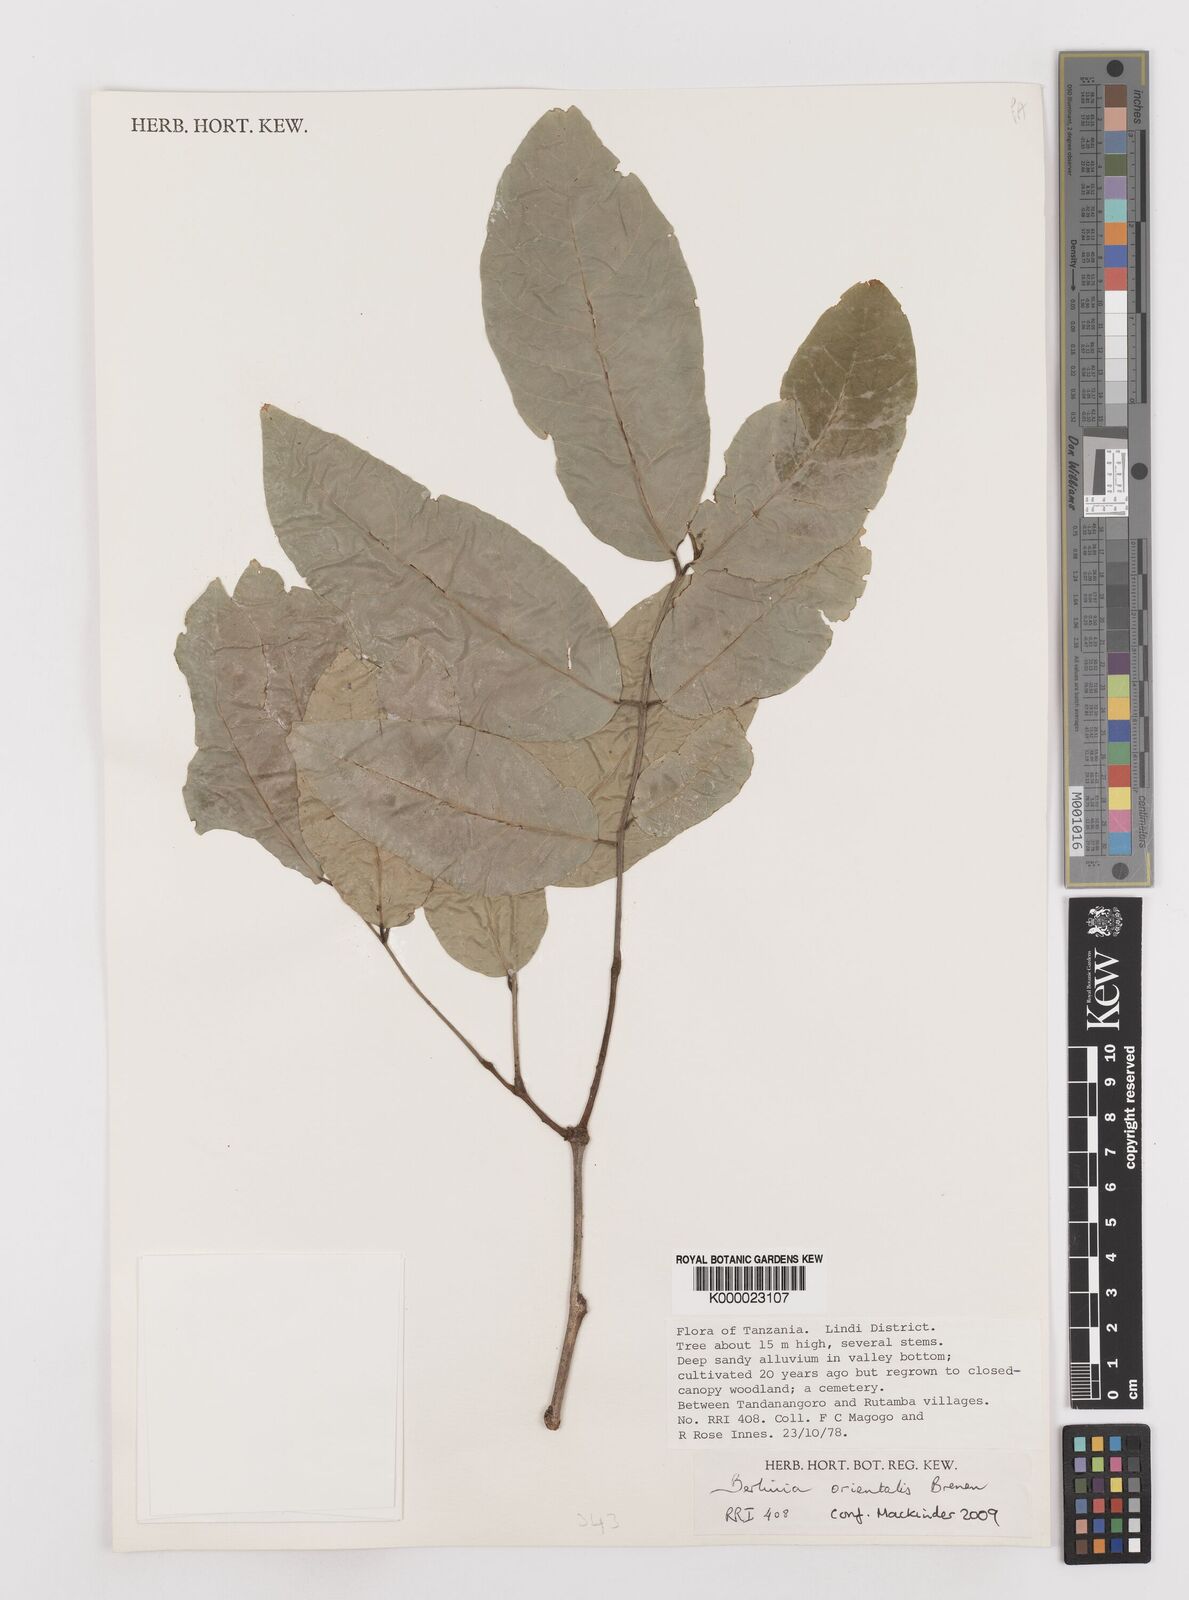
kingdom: Plantae
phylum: Tracheophyta
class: Magnoliopsida
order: Fabales
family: Fabaceae
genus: Berlinia
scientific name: Berlinia orientalis
